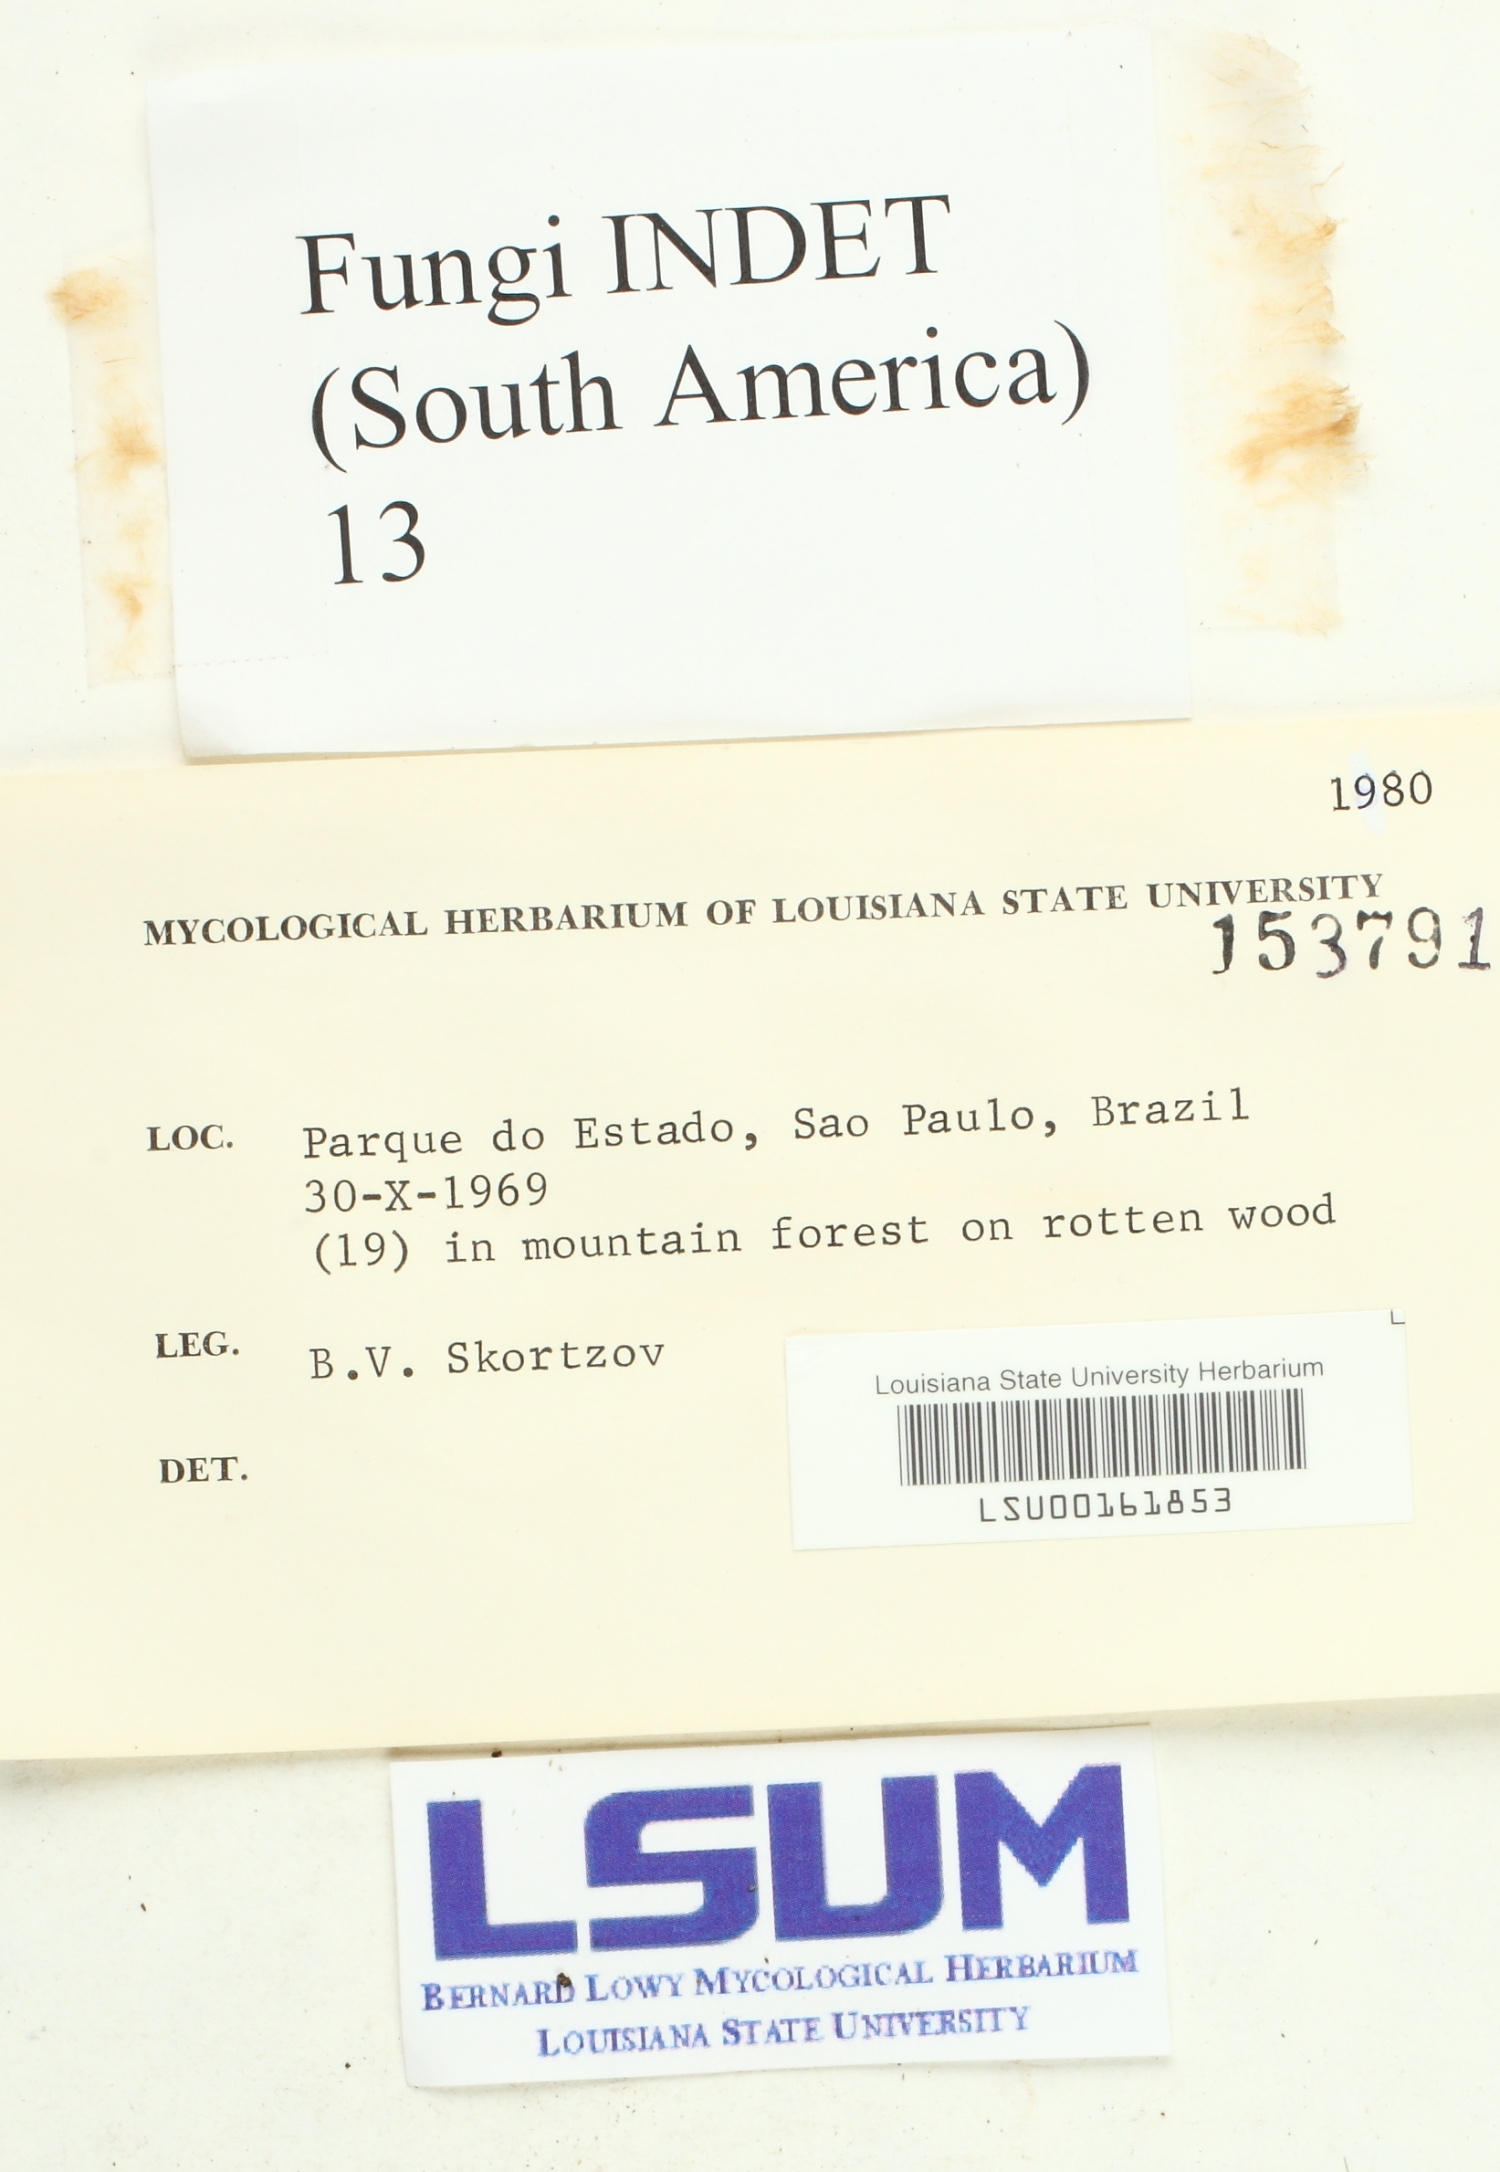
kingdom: Fungi
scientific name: Fungi
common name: Fungi
